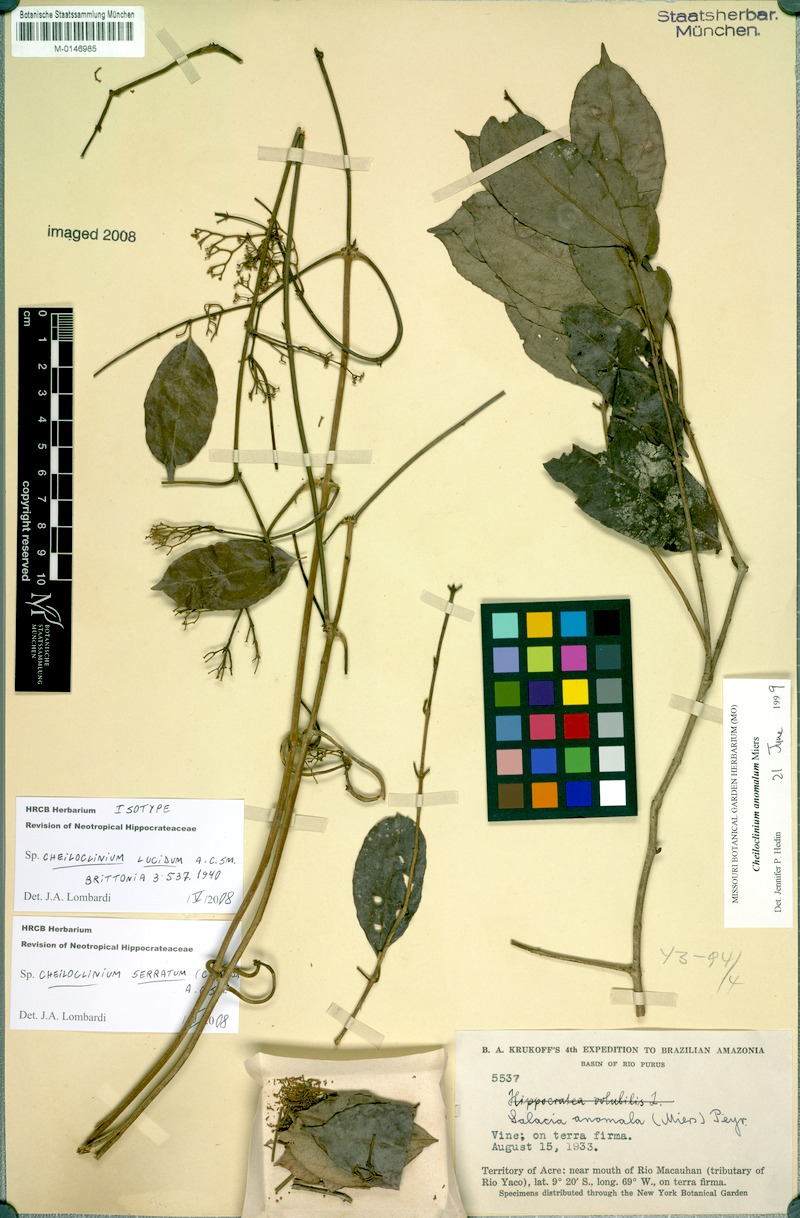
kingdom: Plantae
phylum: Tracheophyta
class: Magnoliopsida
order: Celastrales
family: Celastraceae
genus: Cheiloclinium
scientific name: Cheiloclinium serratum
